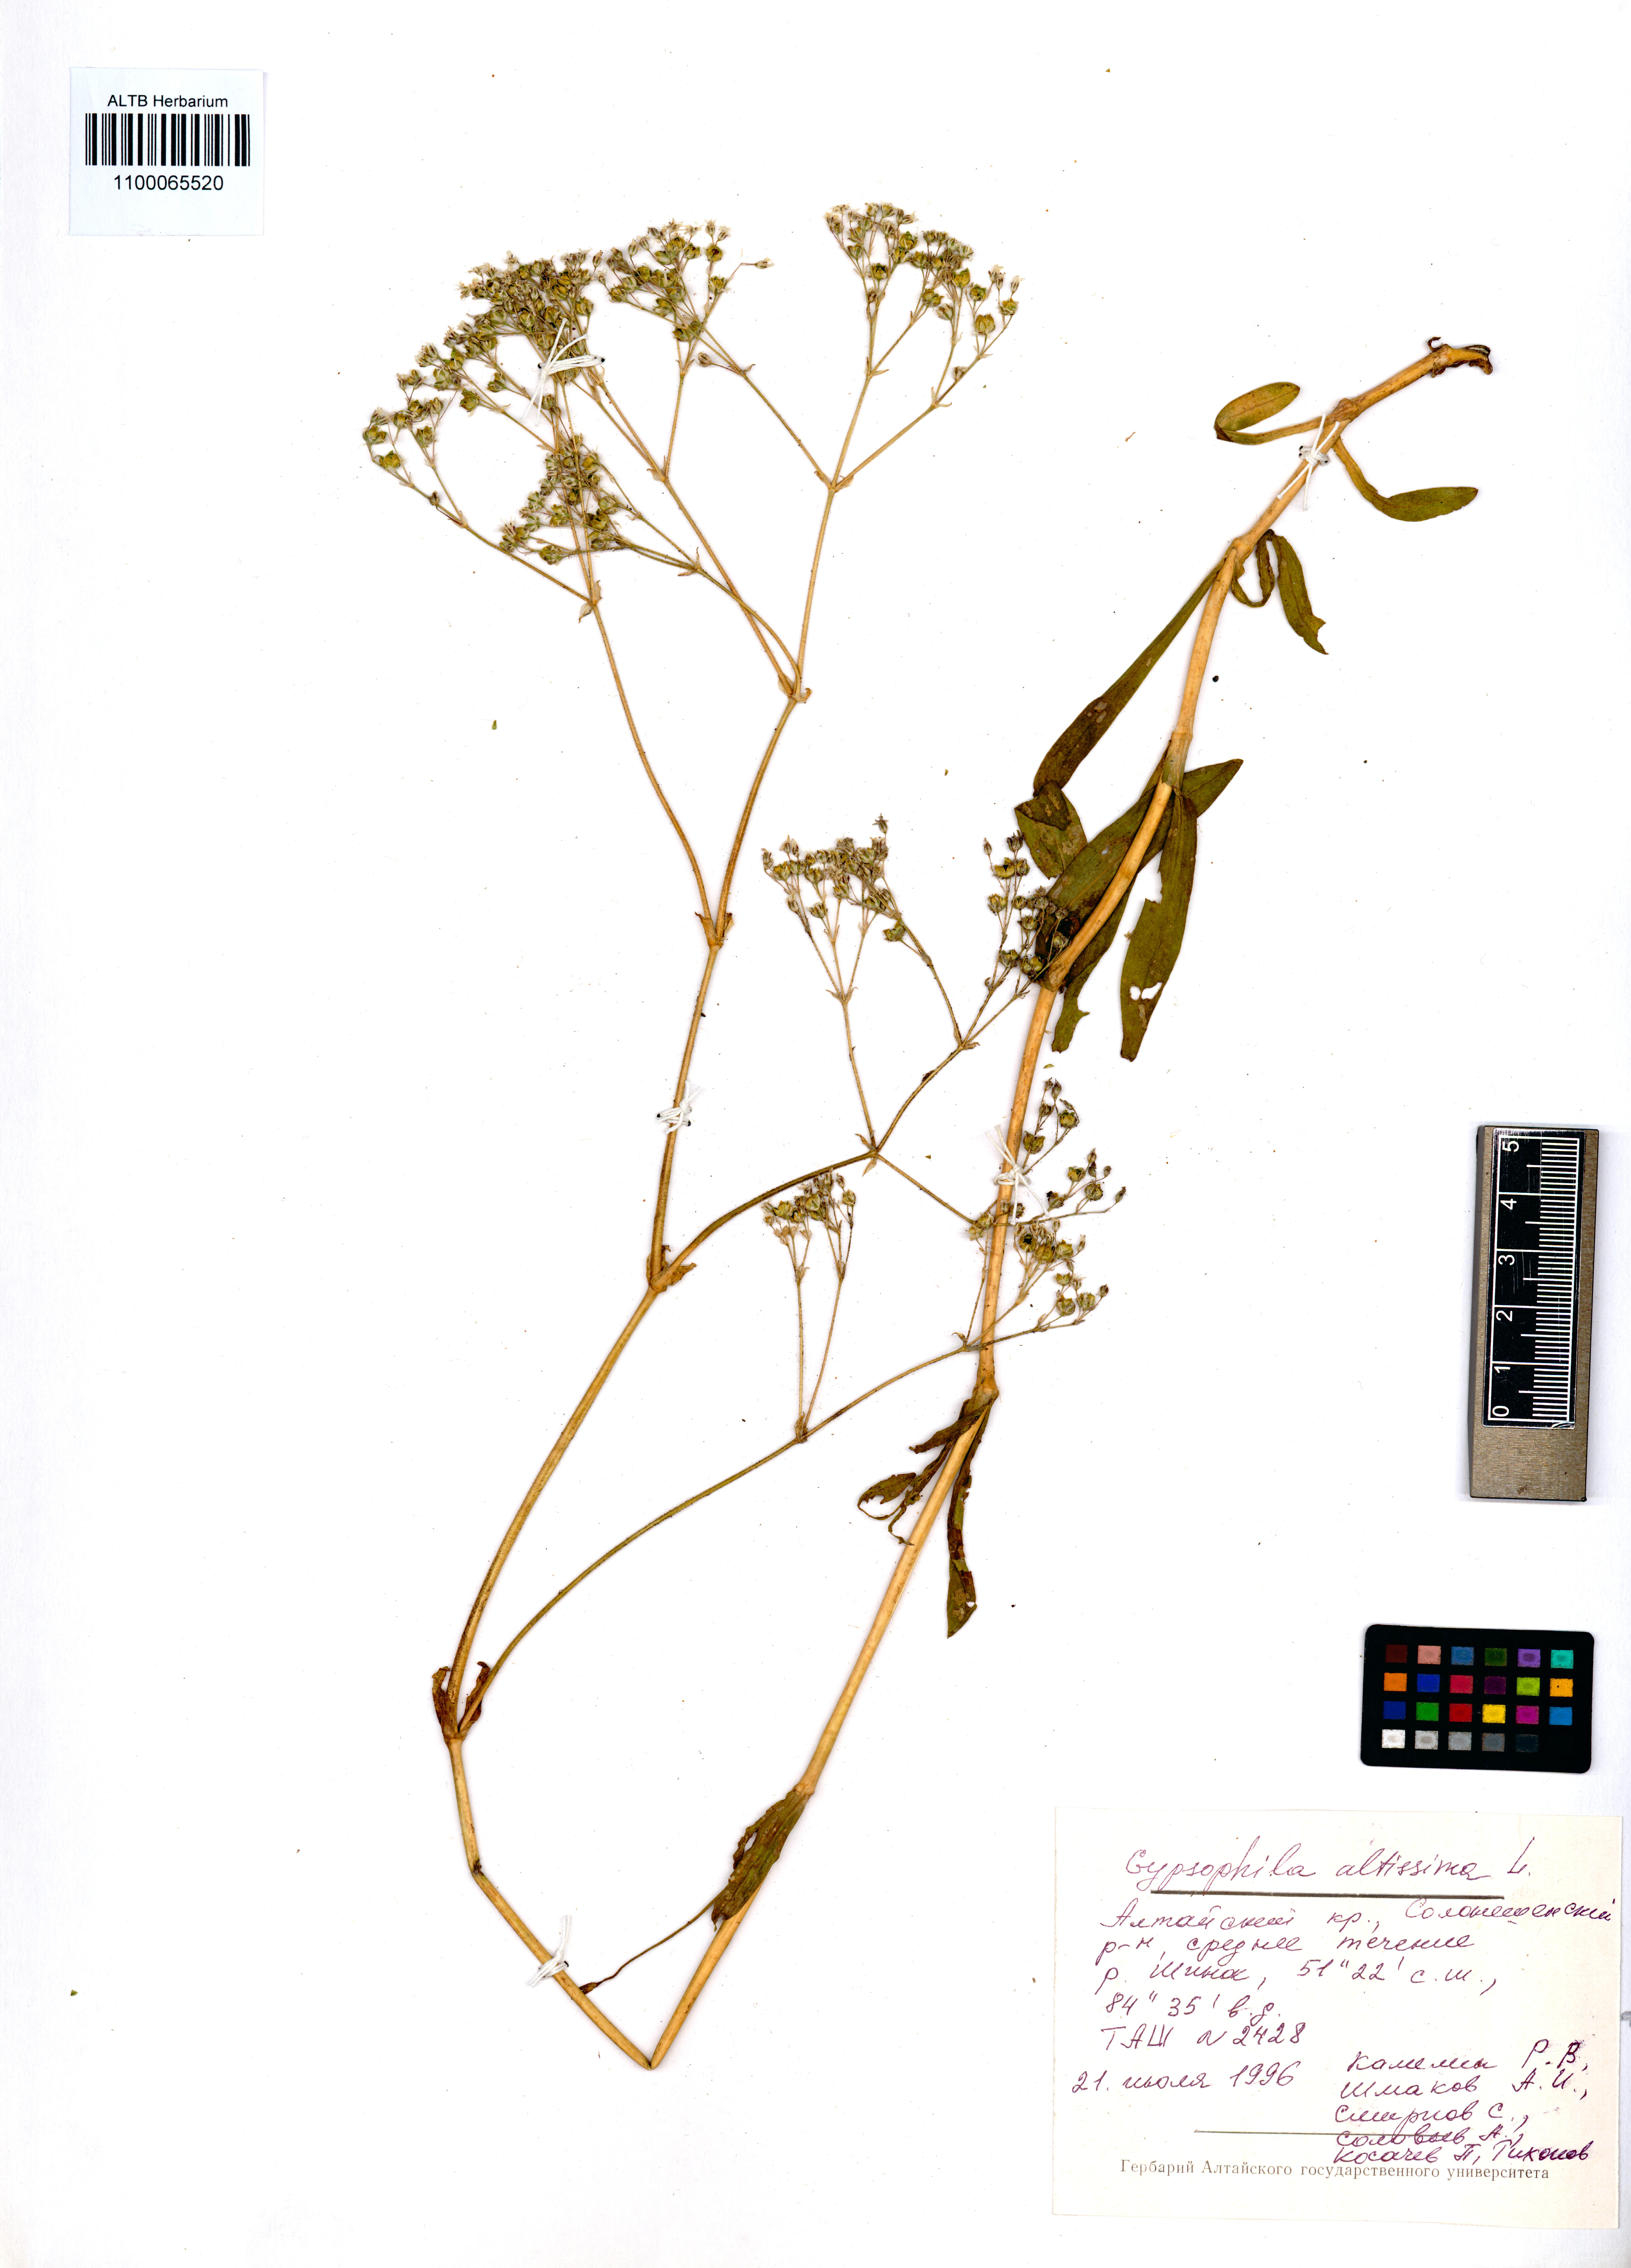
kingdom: Plantae
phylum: Tracheophyta
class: Magnoliopsida
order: Caryophyllales
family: Caryophyllaceae
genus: Gypsophila
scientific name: Gypsophila altissima
